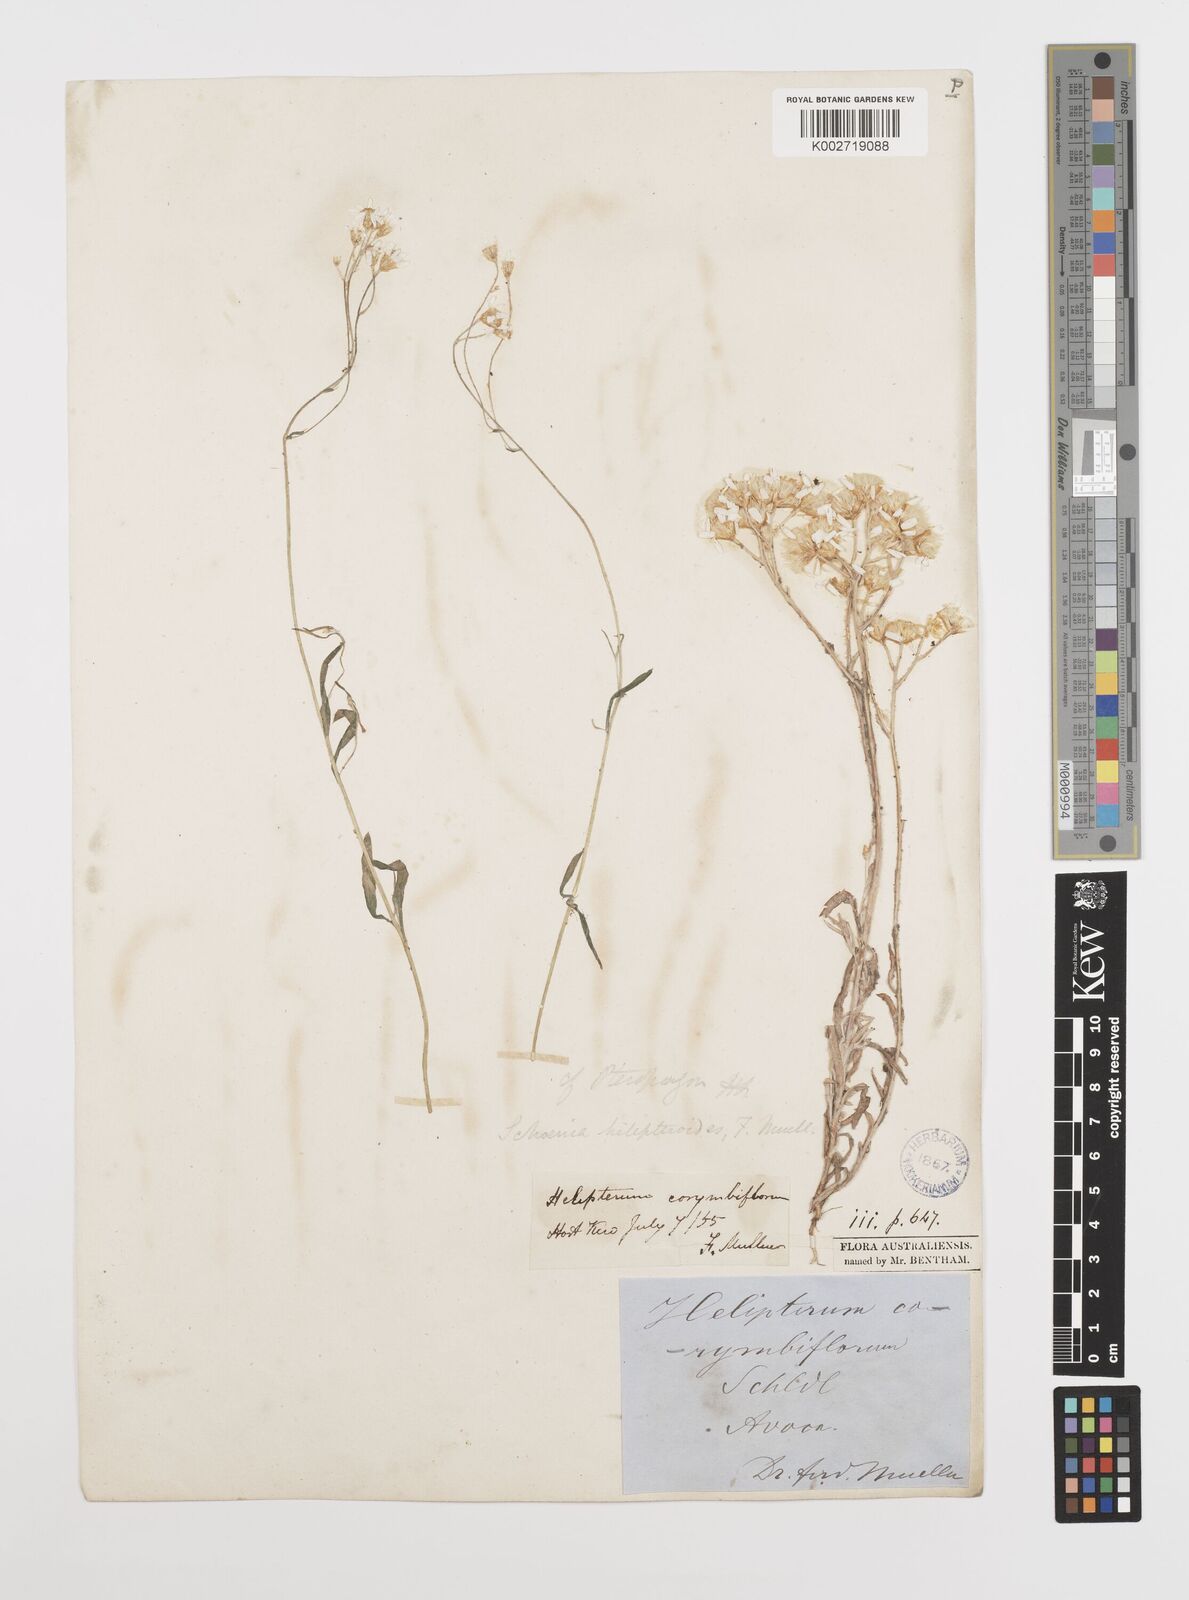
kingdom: Plantae
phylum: Tracheophyta
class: Magnoliopsida
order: Asterales
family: Asteraceae
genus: Rhodanthe
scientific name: Rhodanthe corymbiflora
